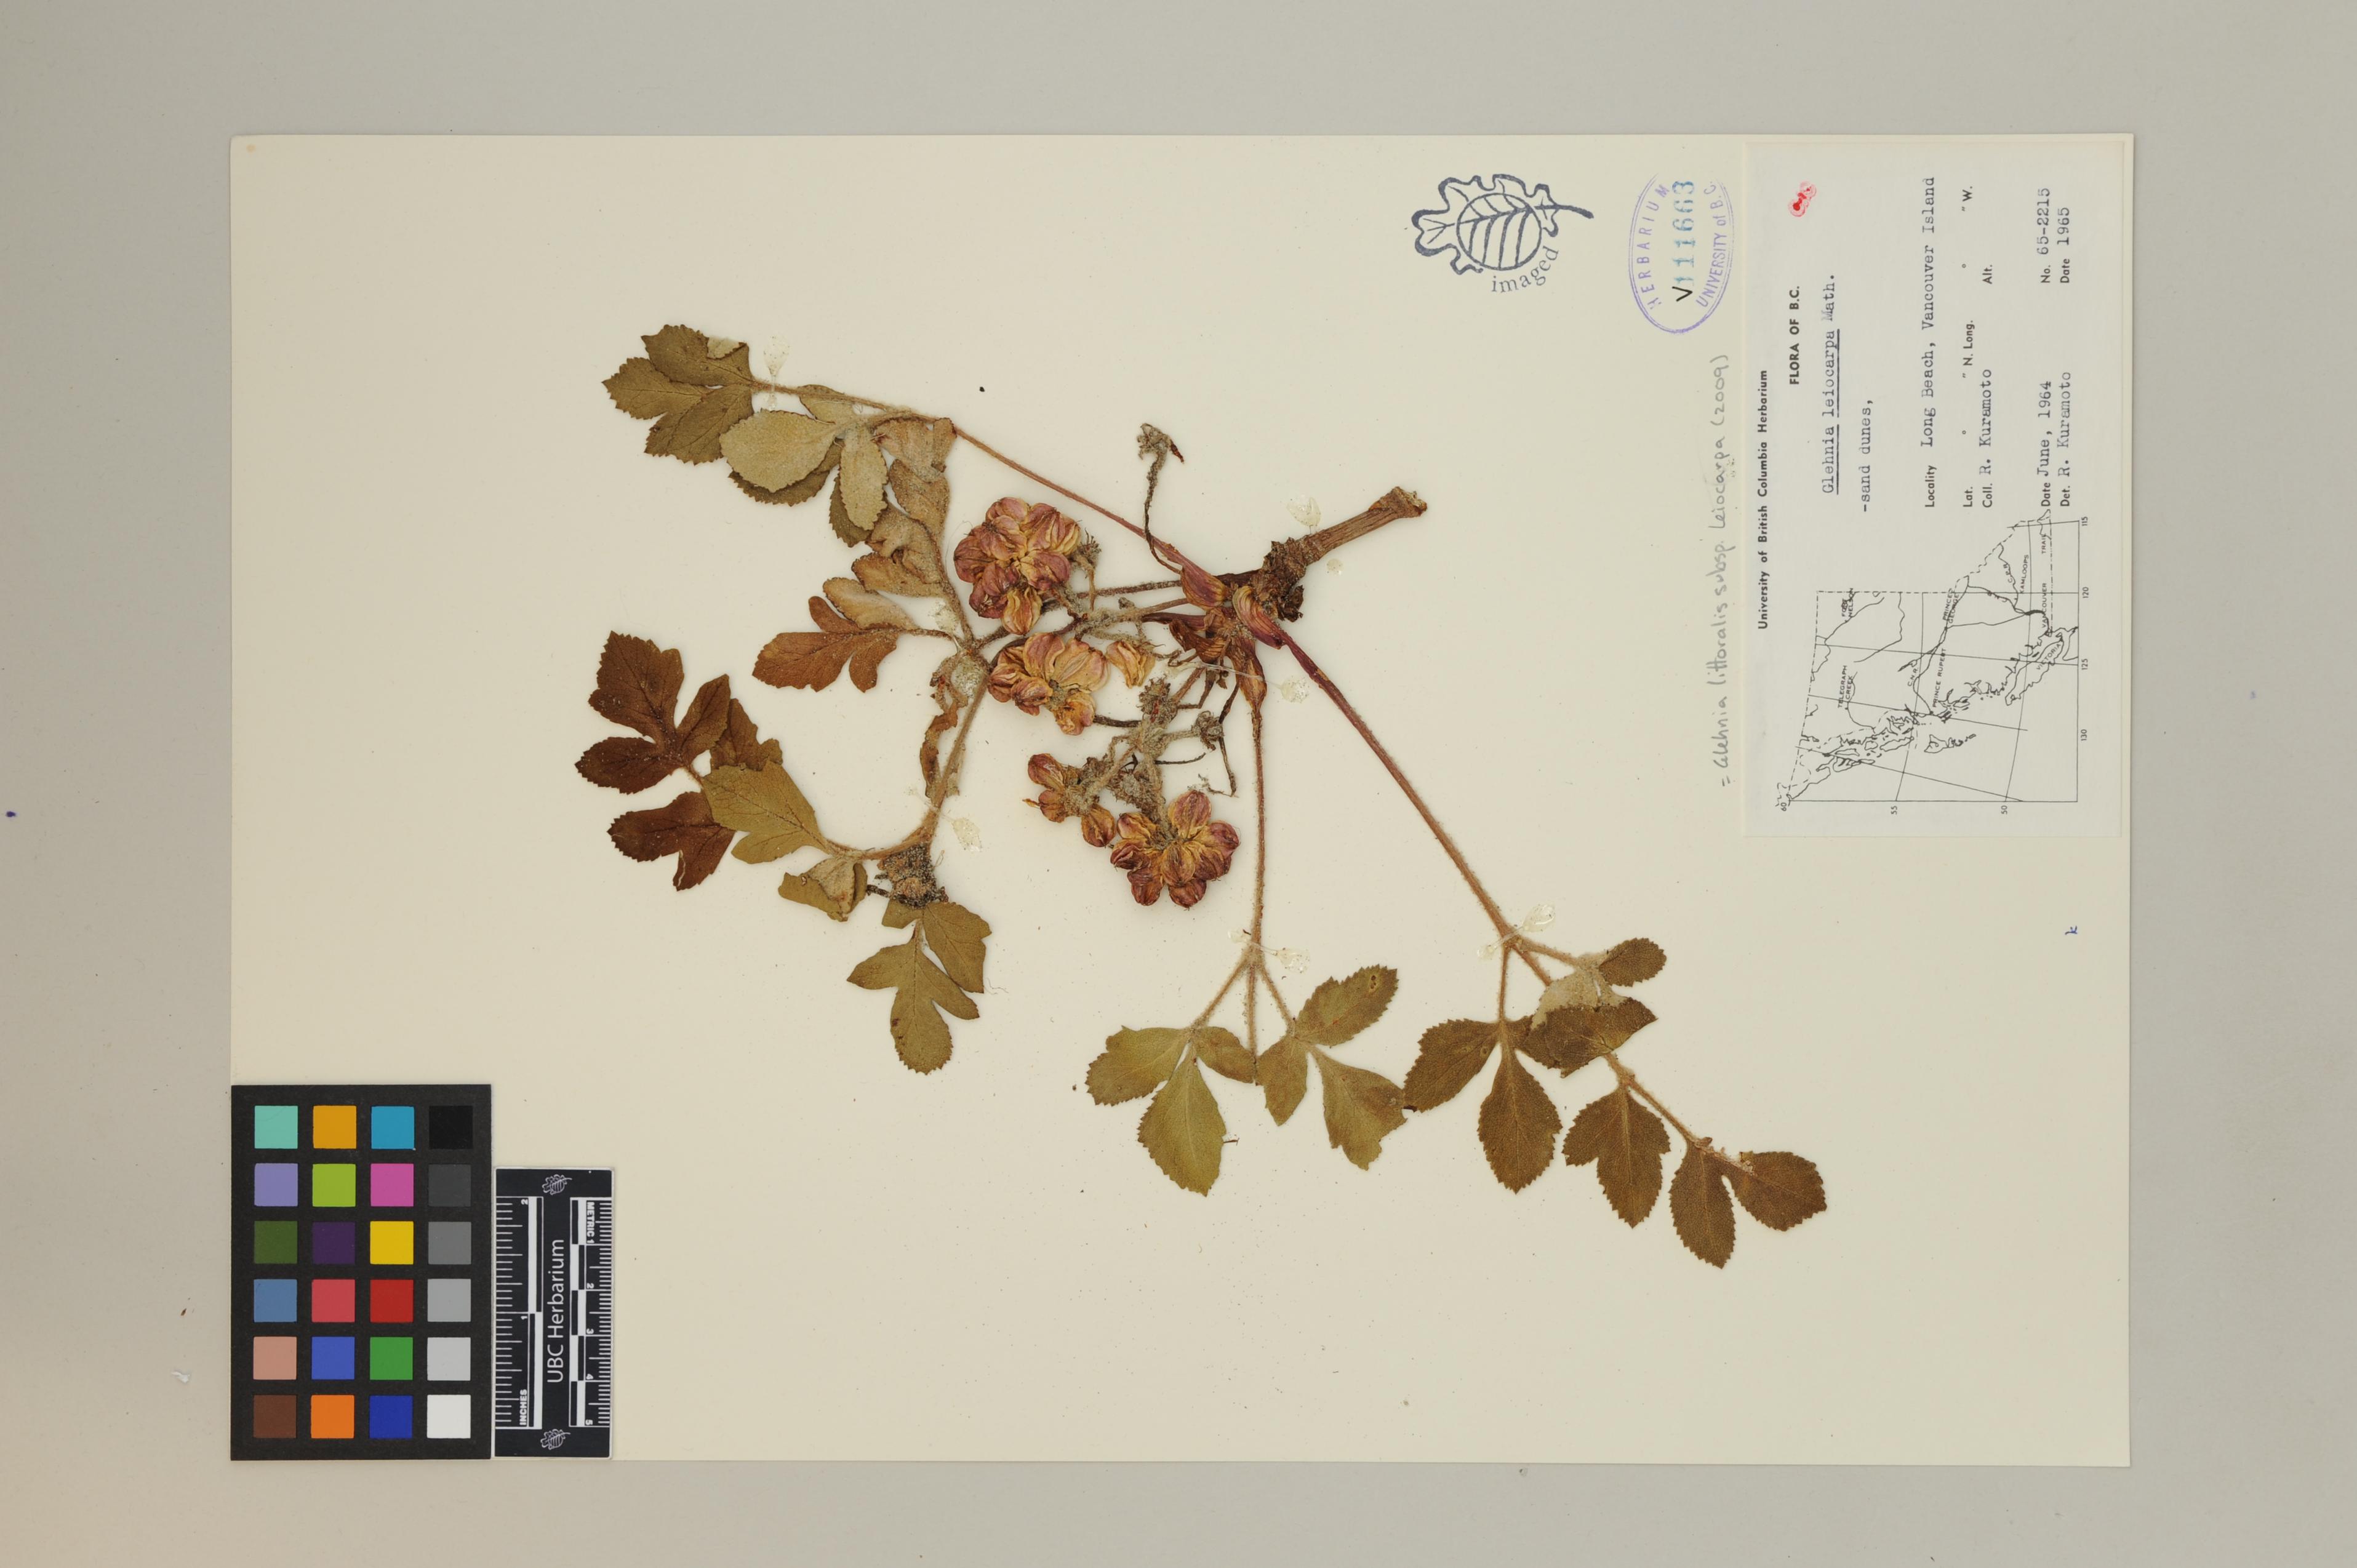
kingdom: Plantae
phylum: Tracheophyta
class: Magnoliopsida
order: Apiales
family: Apiaceae
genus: Angelica
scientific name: Angelica leiocarpa
